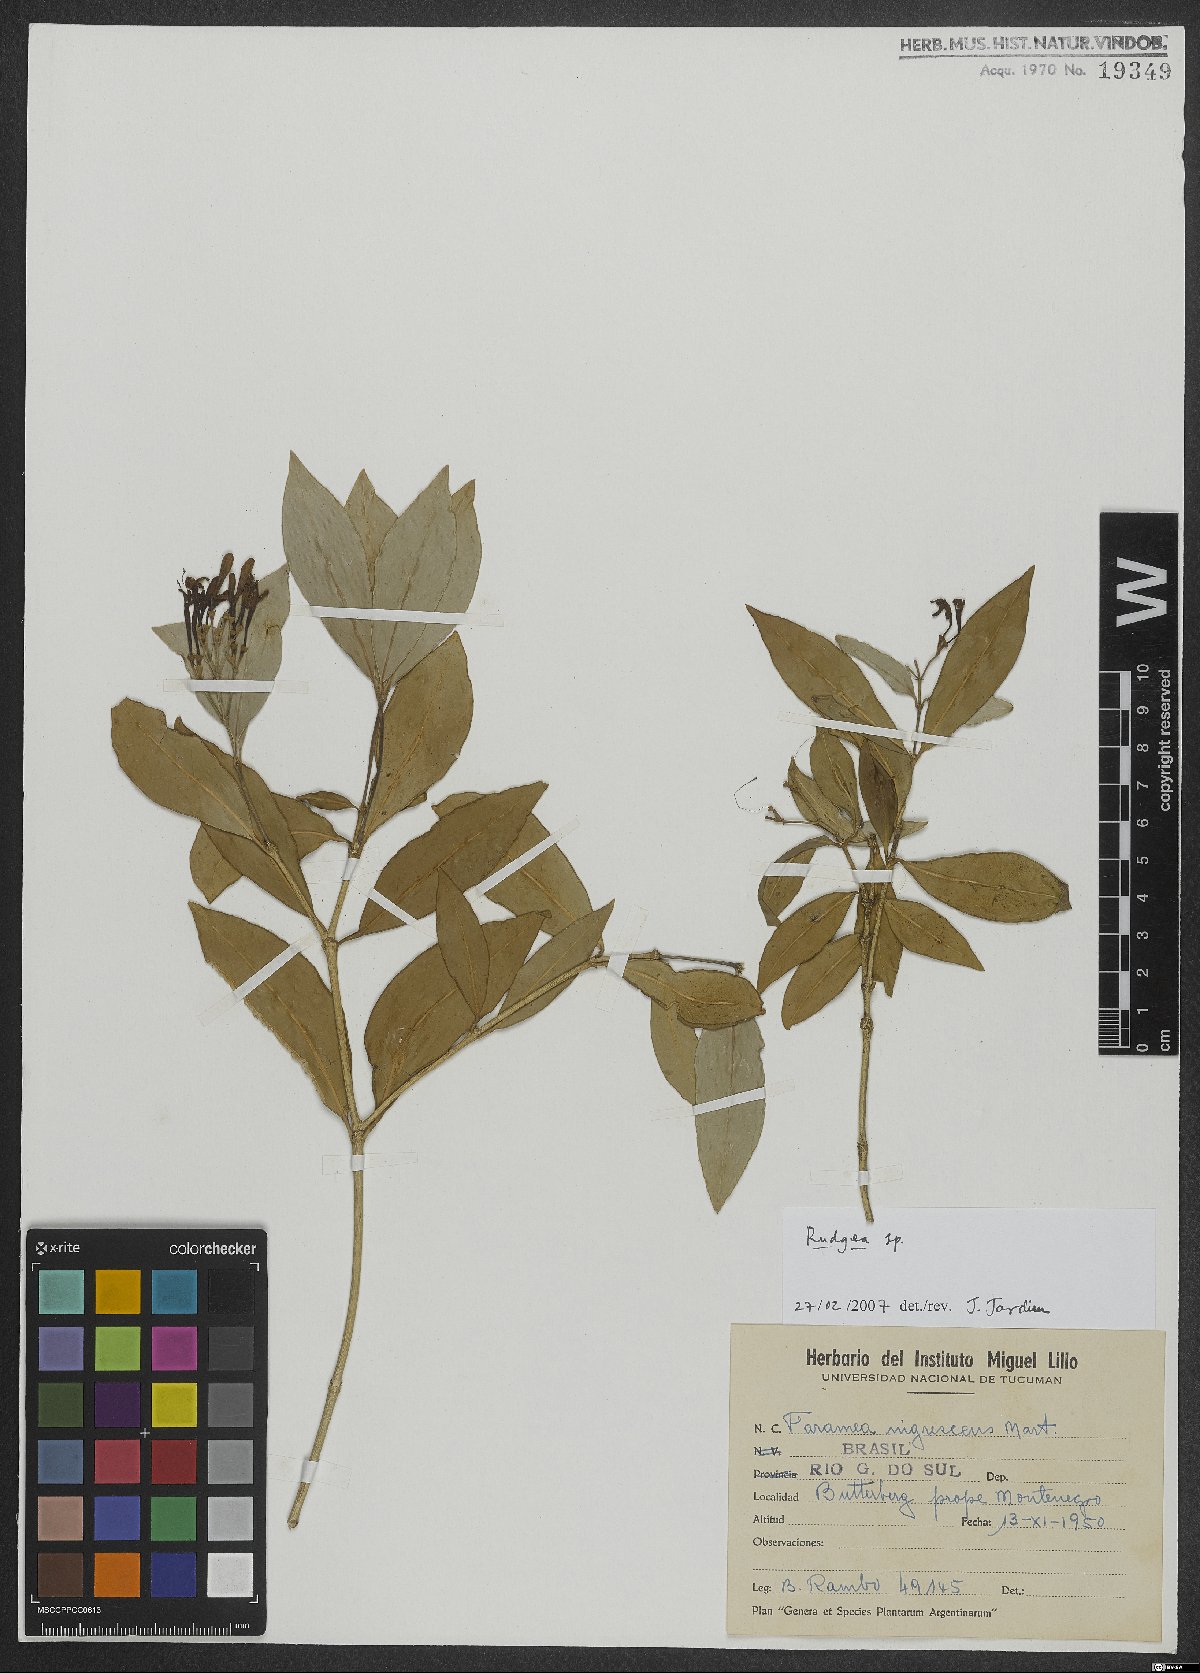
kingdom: Plantae
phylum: Tracheophyta
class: Magnoliopsida
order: Gentianales
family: Rubiaceae
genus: Rudgea
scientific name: Rudgea
